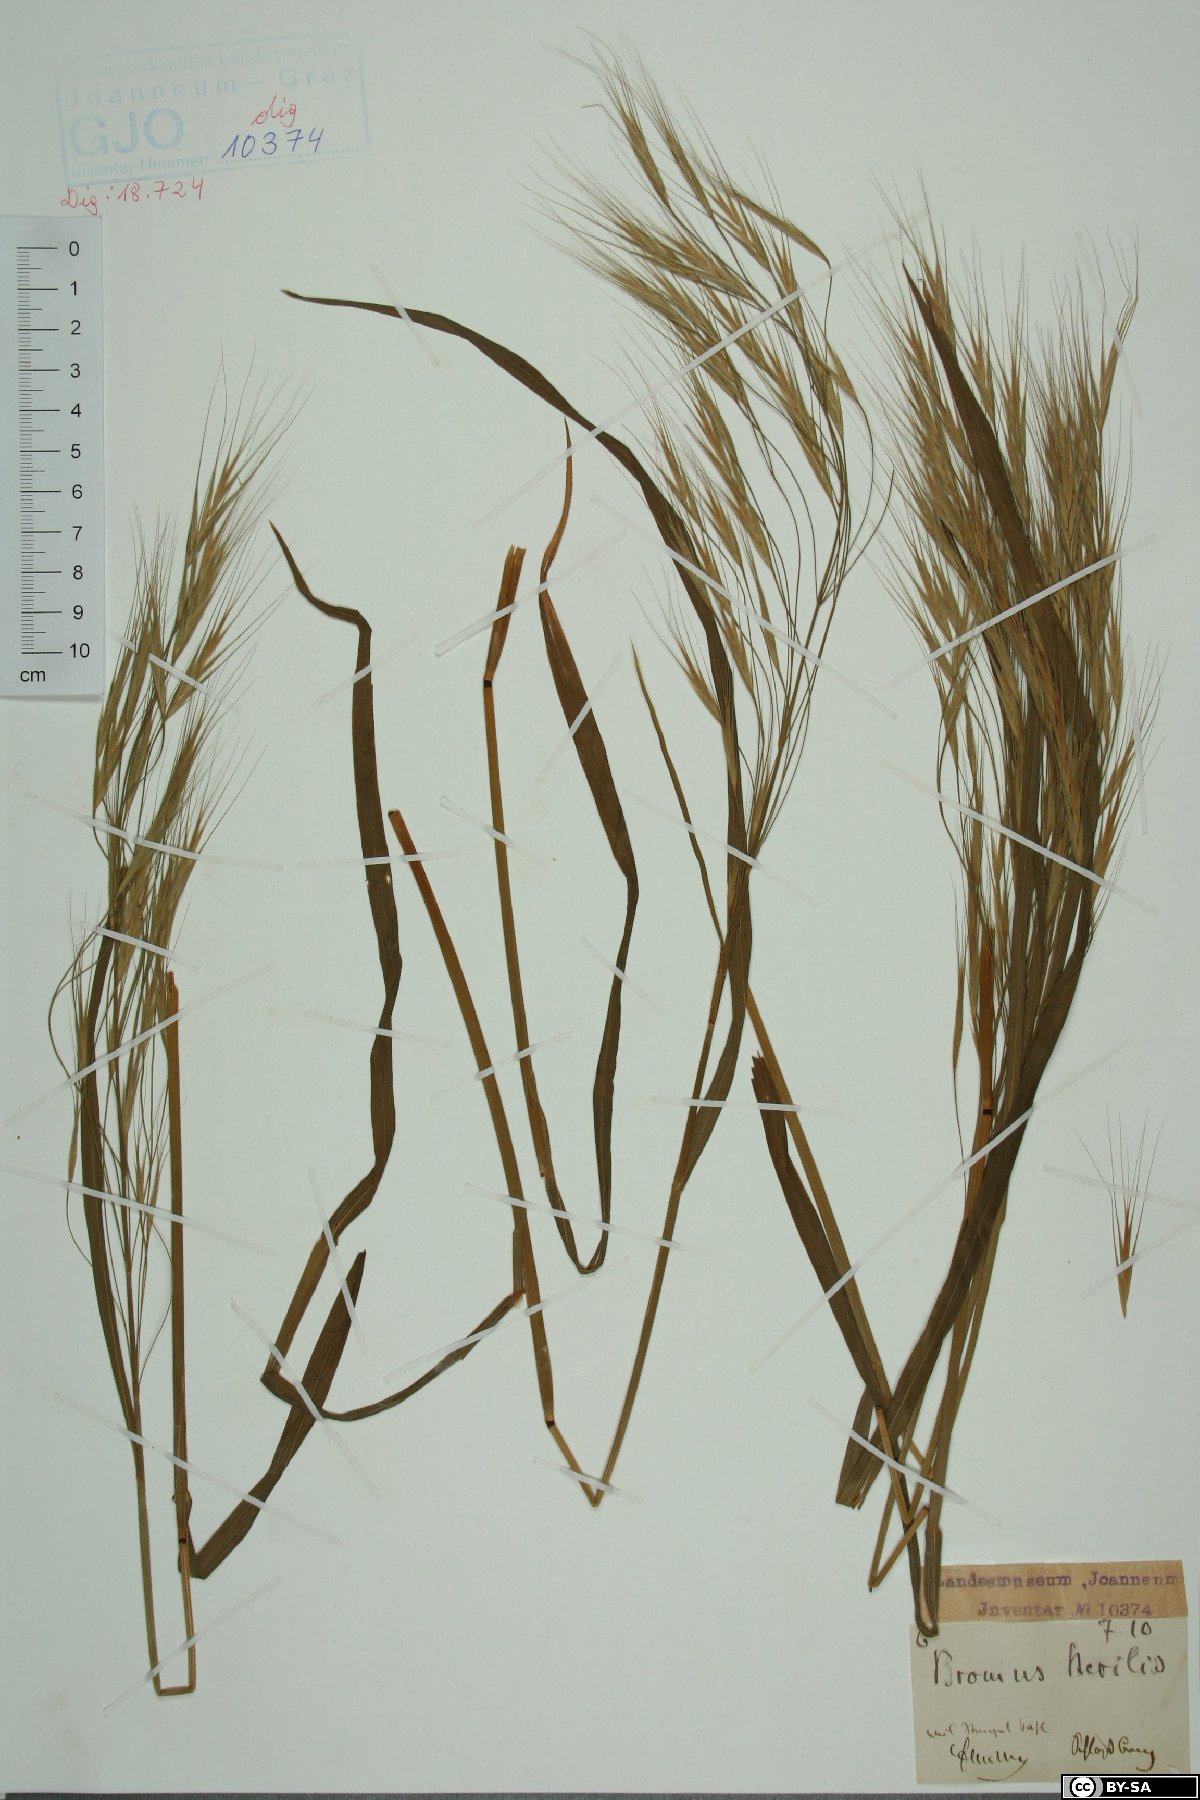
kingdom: Plantae
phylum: Tracheophyta
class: Liliopsida
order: Poales
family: Poaceae
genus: Bromus
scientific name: Bromus sterilis
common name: Poverty brome
